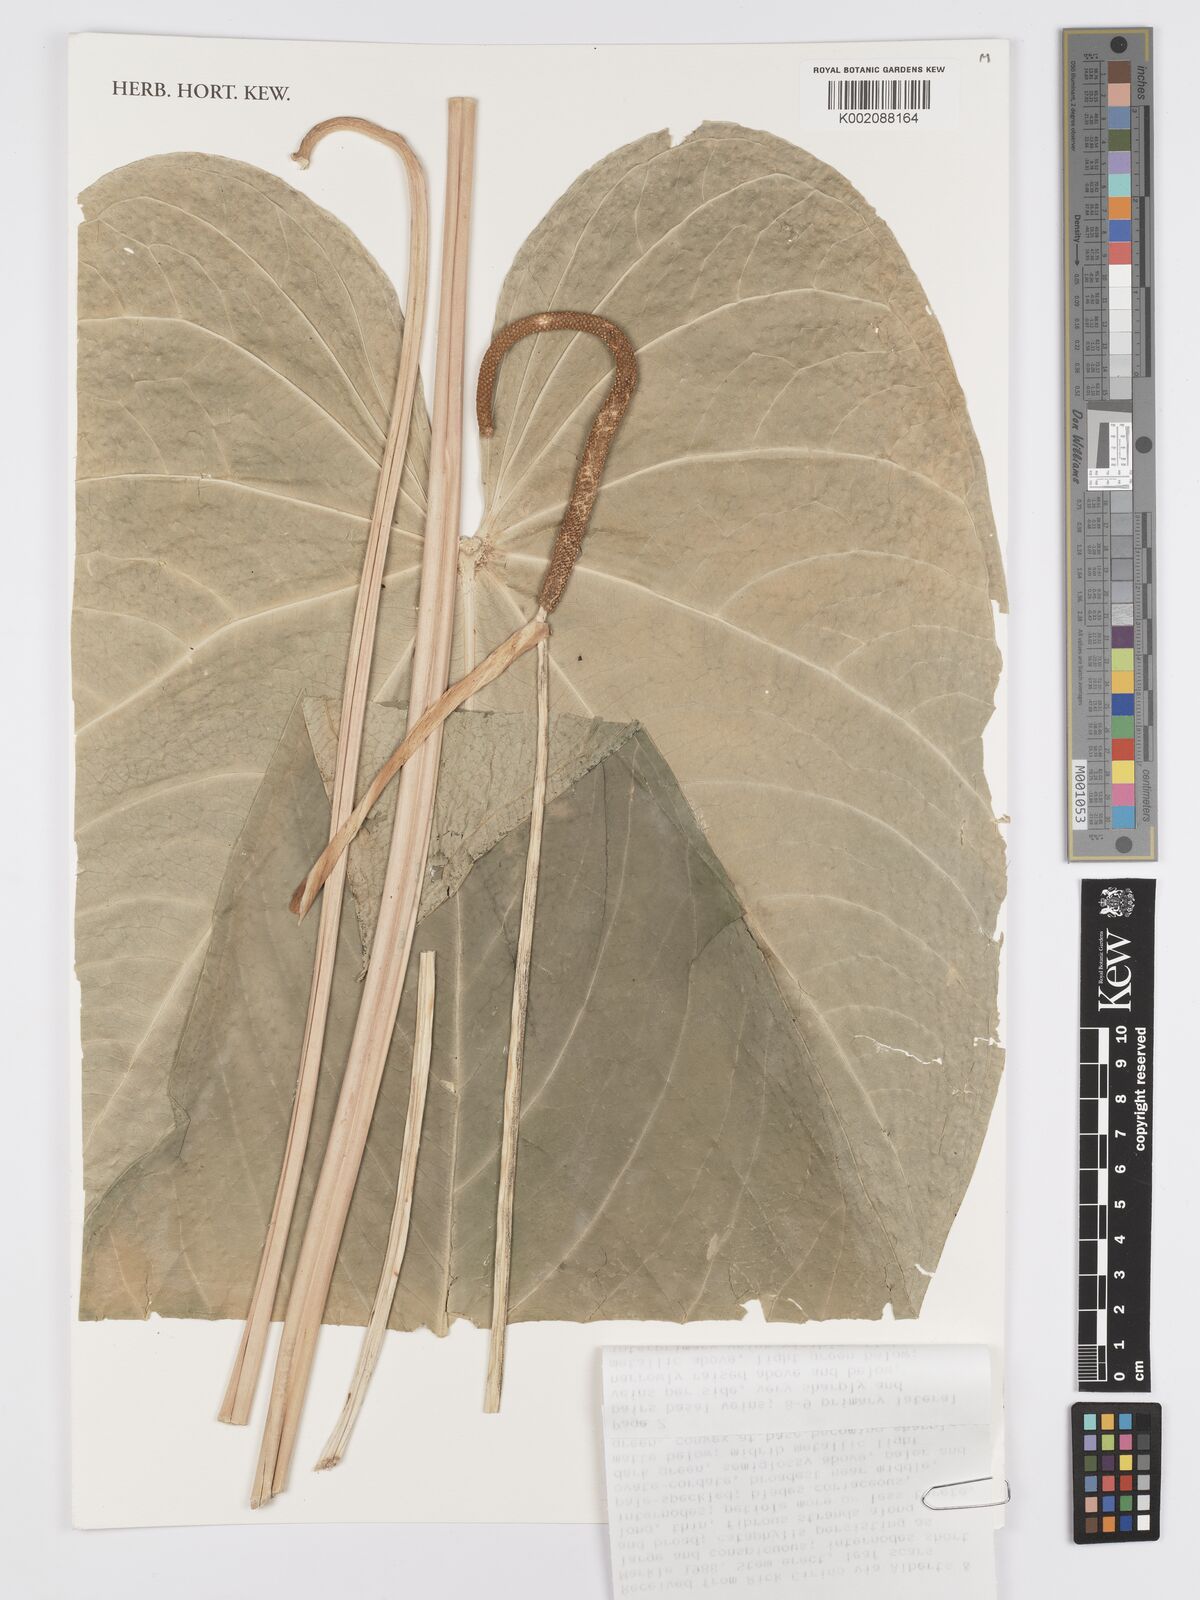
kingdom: Plantae
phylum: Tracheophyta
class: Liliopsida
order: Alismatales
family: Araceae
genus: Anthurium
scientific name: Anthurium
